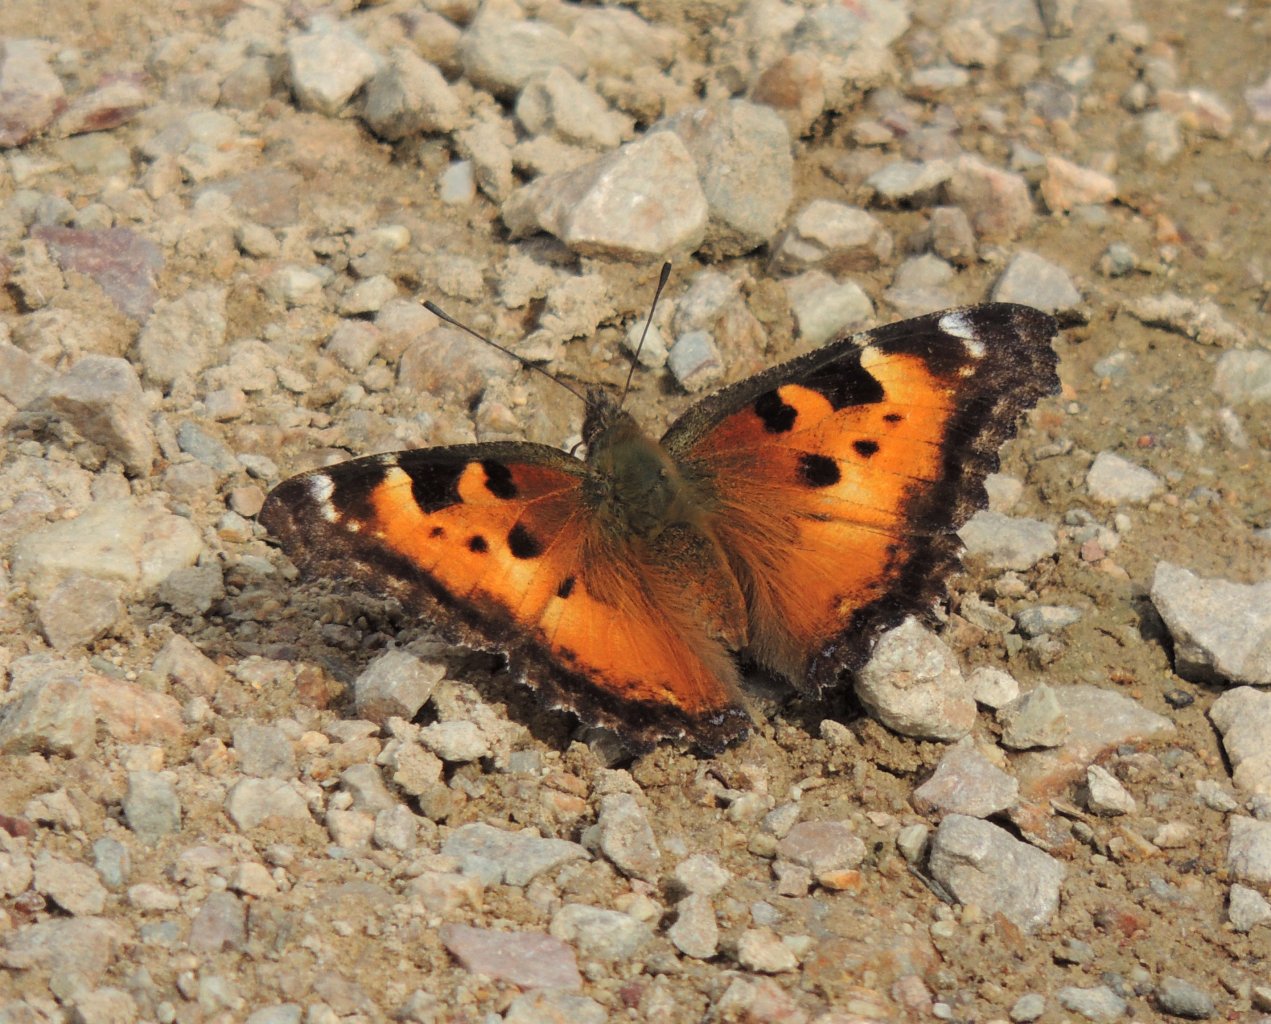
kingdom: Animalia
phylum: Arthropoda
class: Insecta
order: Lepidoptera
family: Nymphalidae
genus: Nymphalis
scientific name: Nymphalis californica
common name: California Tortoiseshell
